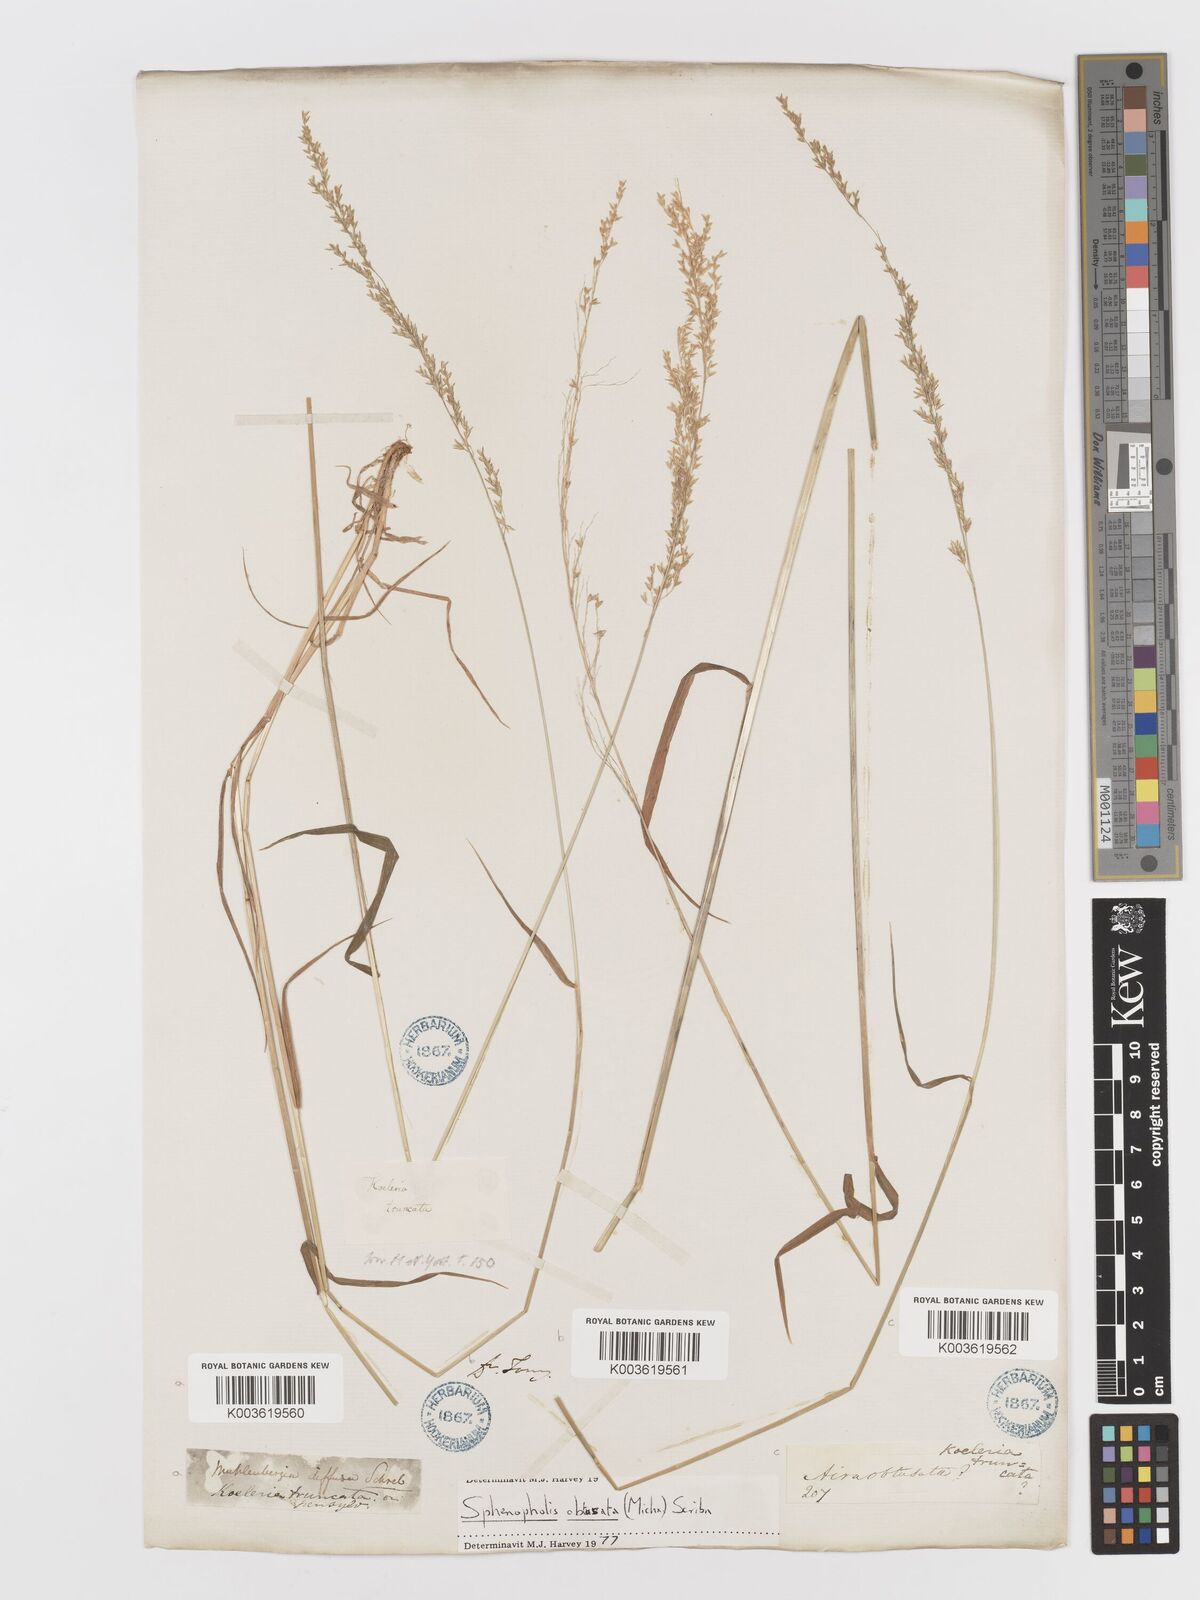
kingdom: Plantae
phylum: Tracheophyta
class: Liliopsida
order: Poales
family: Poaceae
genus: Sphenopholis
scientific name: Sphenopholis obtusata
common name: Prairie grass
